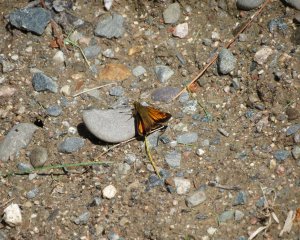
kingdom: Animalia
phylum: Arthropoda
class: Insecta
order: Lepidoptera
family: Hesperiidae
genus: Lon
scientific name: Lon hobomok
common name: Hobomok Skipper
